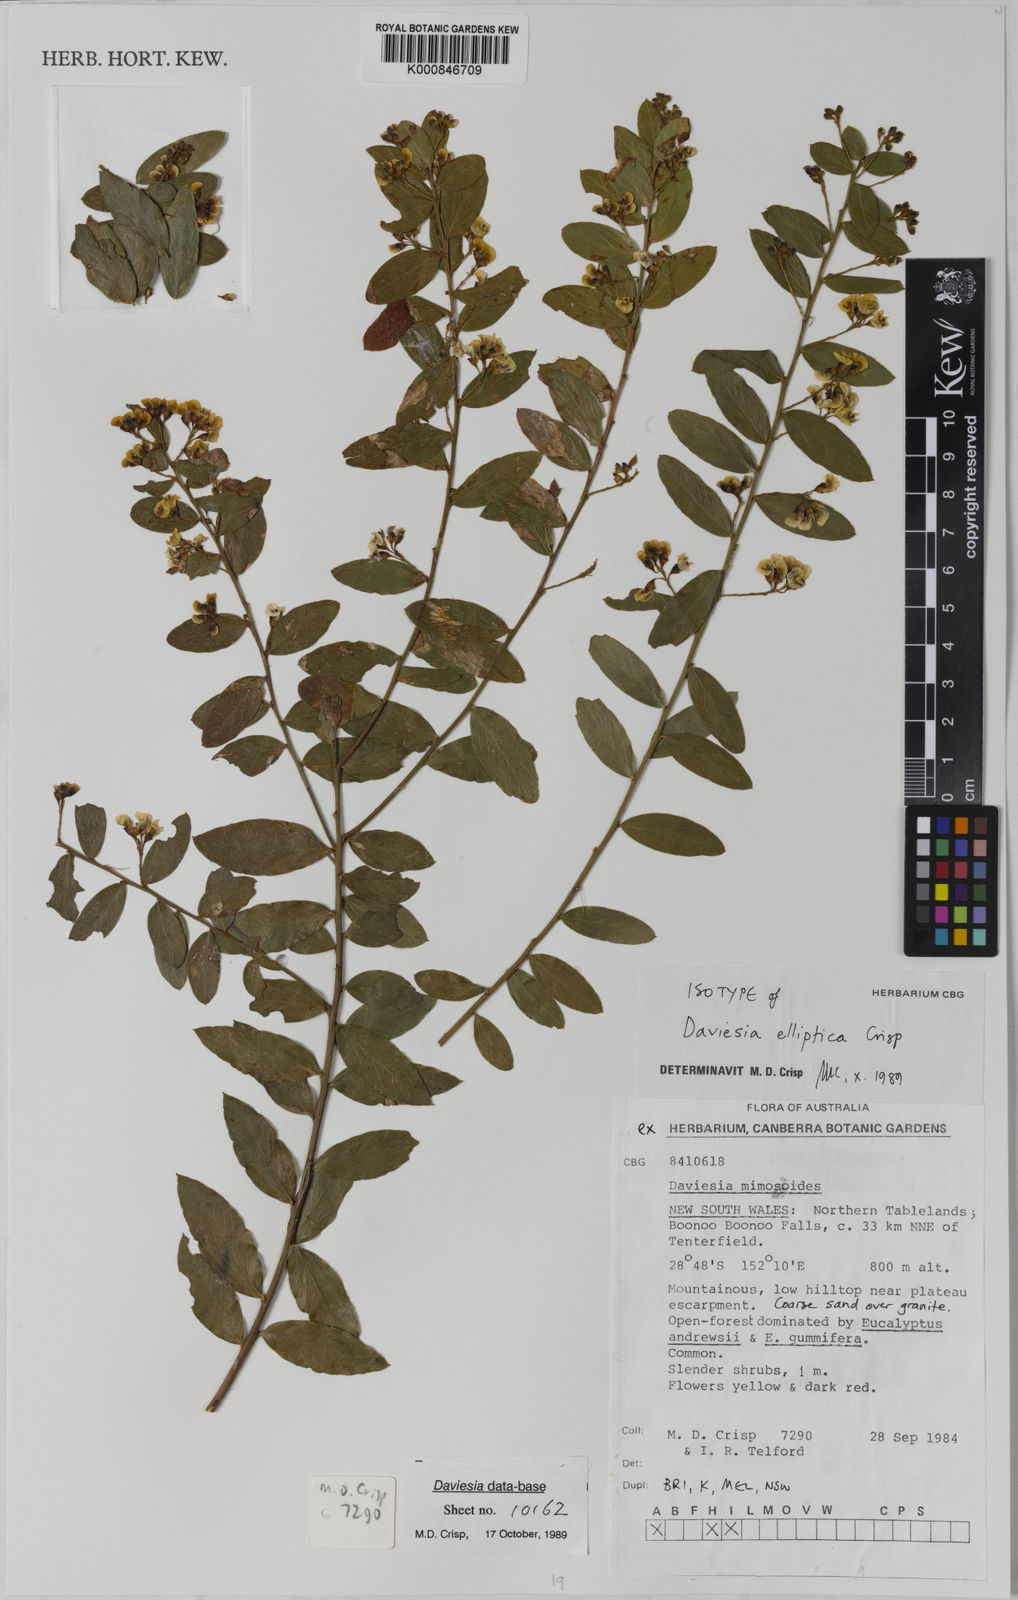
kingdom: Plantae
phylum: Tracheophyta
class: Magnoliopsida
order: Fabales
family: Fabaceae
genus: Daviesia
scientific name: Daviesia elliptica
